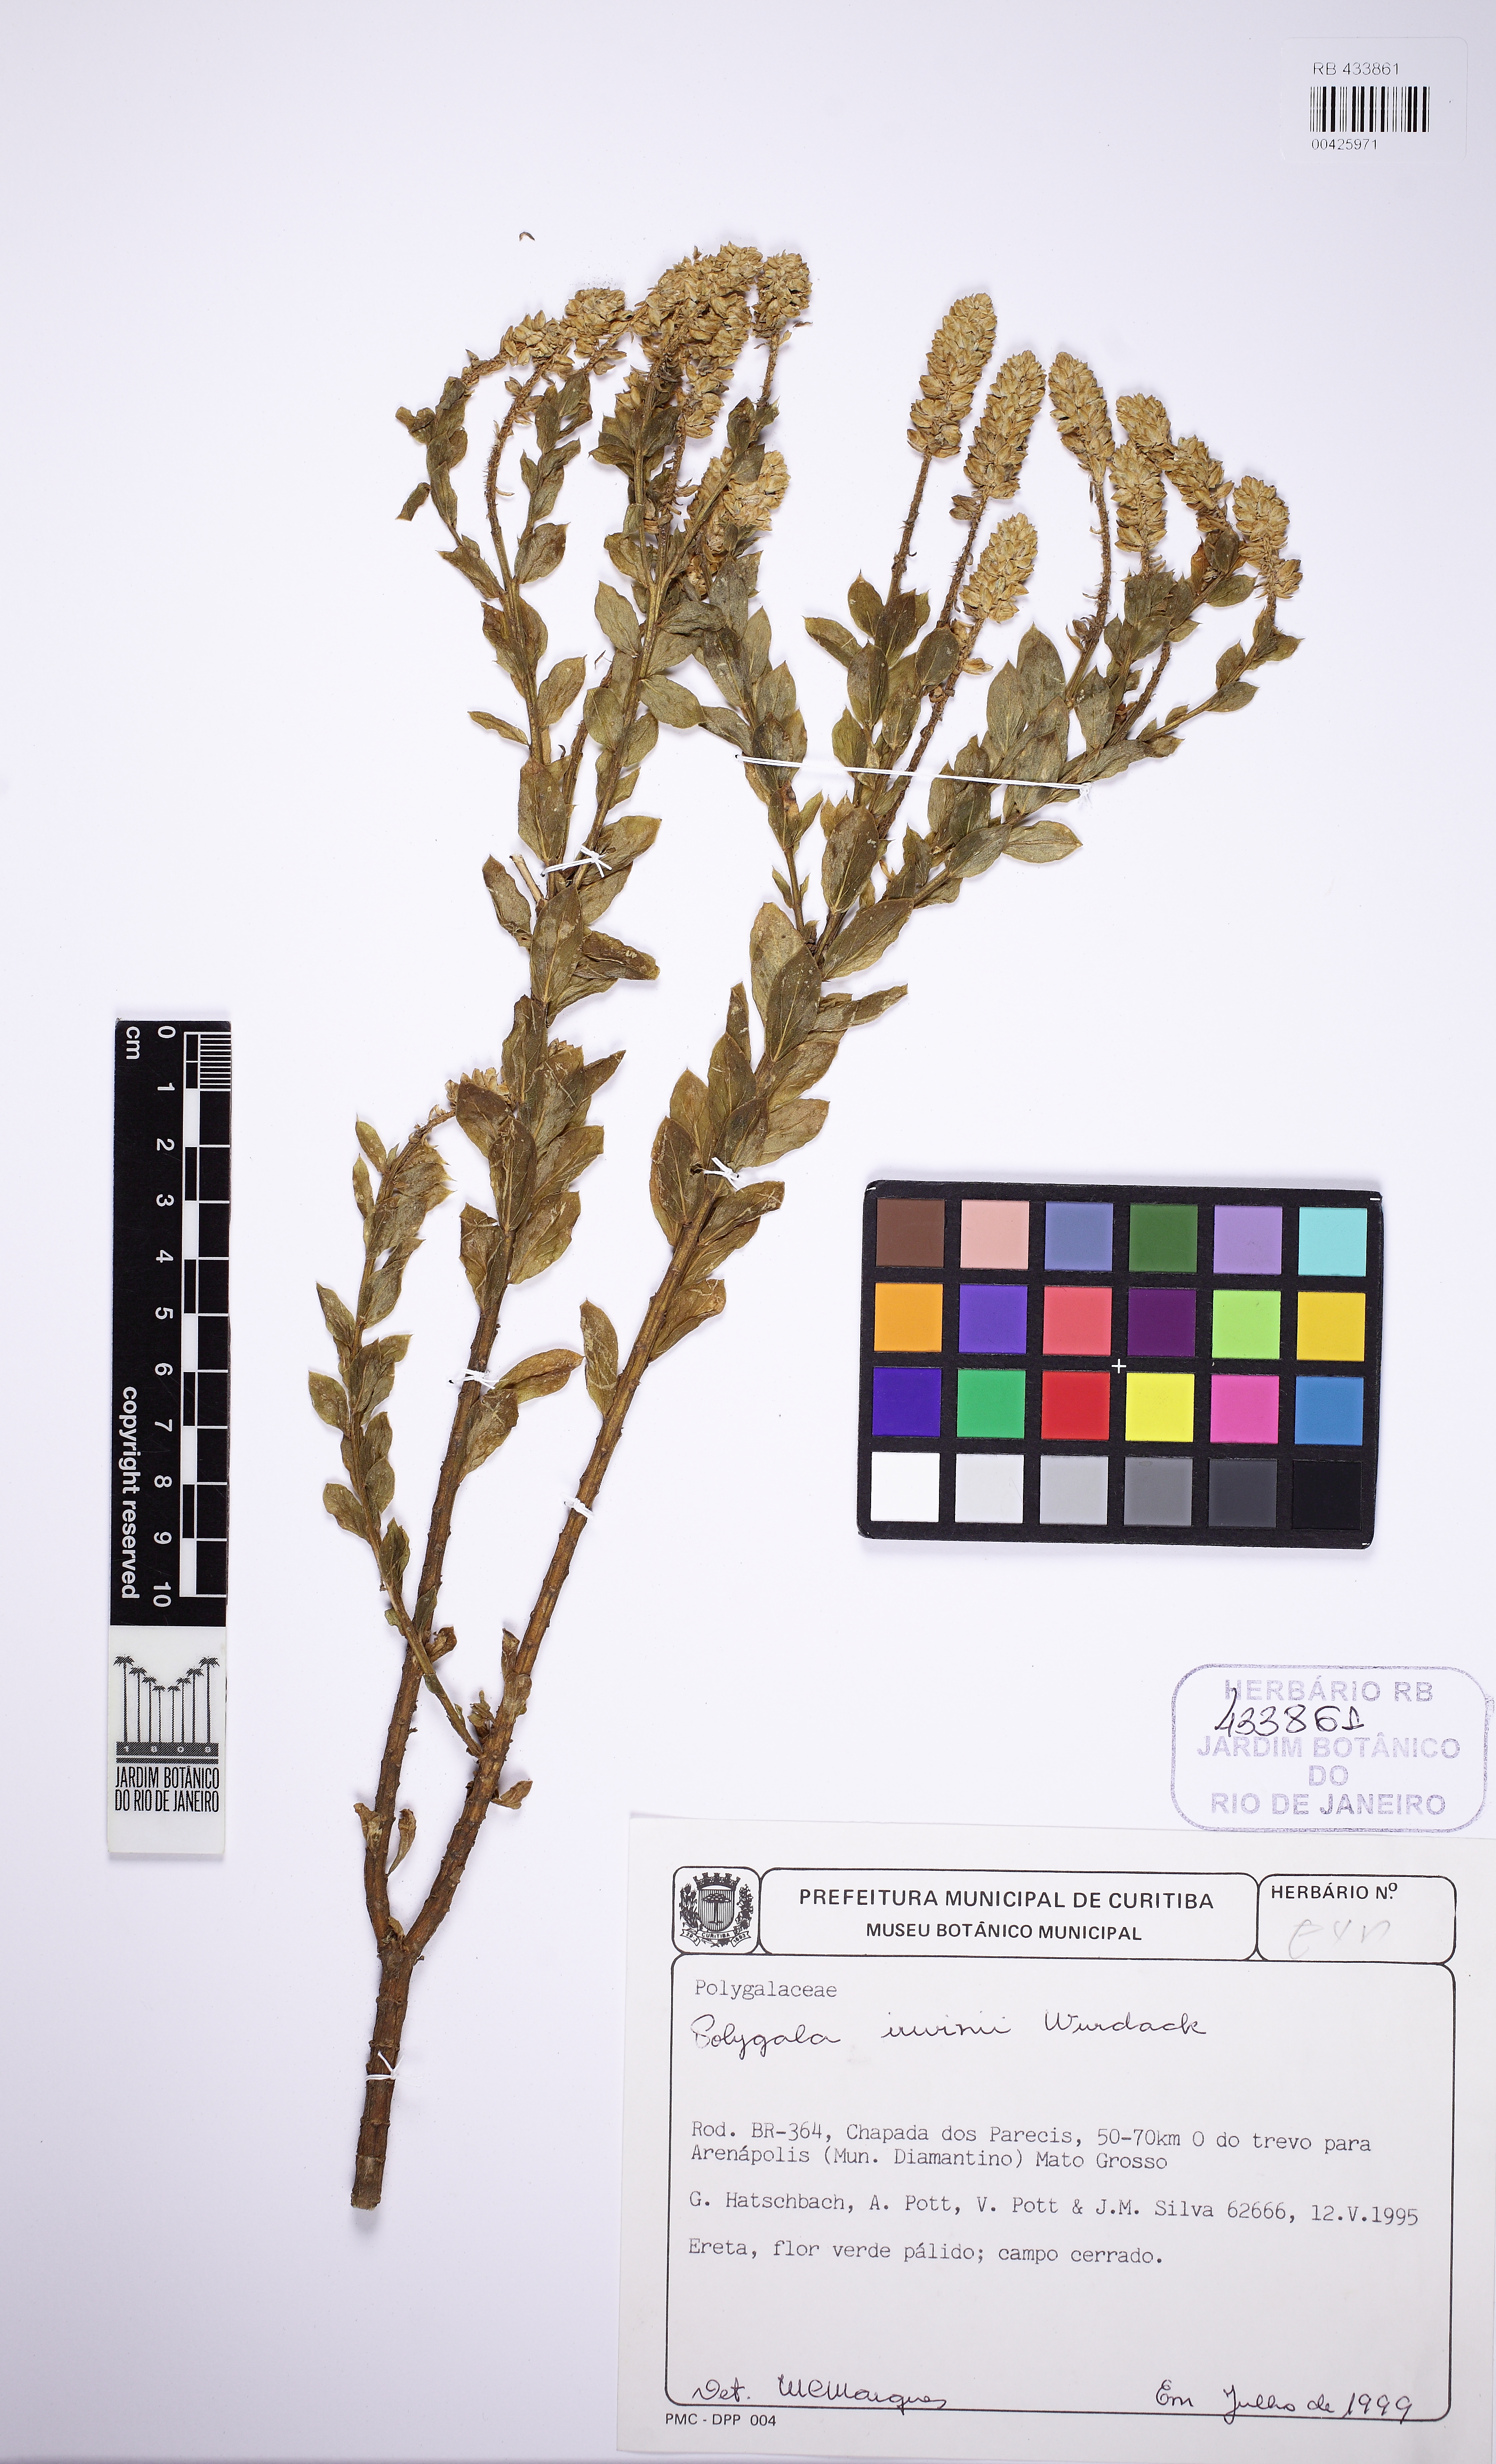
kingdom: Plantae
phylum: Tracheophyta
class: Magnoliopsida
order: Fabales
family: Polygalaceae
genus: Polygala
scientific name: Polygala irwinii
